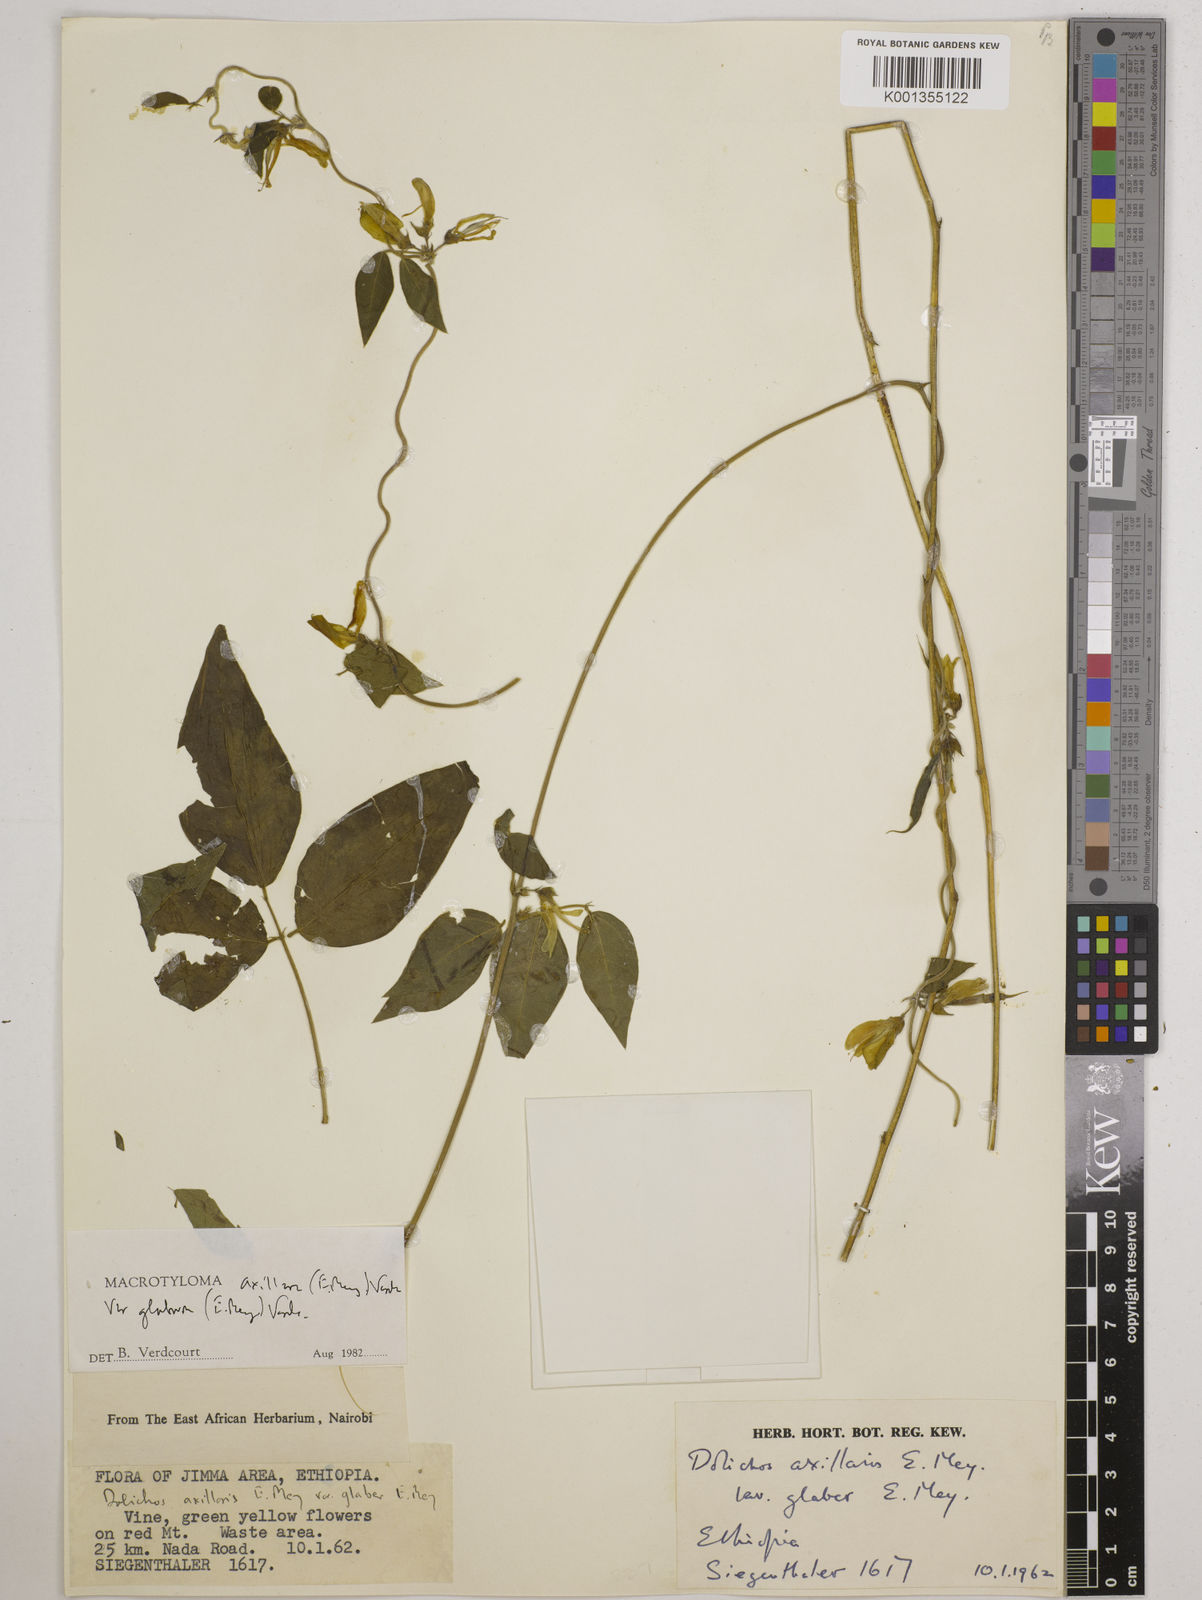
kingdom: Plantae
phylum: Tracheophyta
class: Magnoliopsida
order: Fabales
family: Fabaceae
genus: Macrotyloma
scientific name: Macrotyloma
